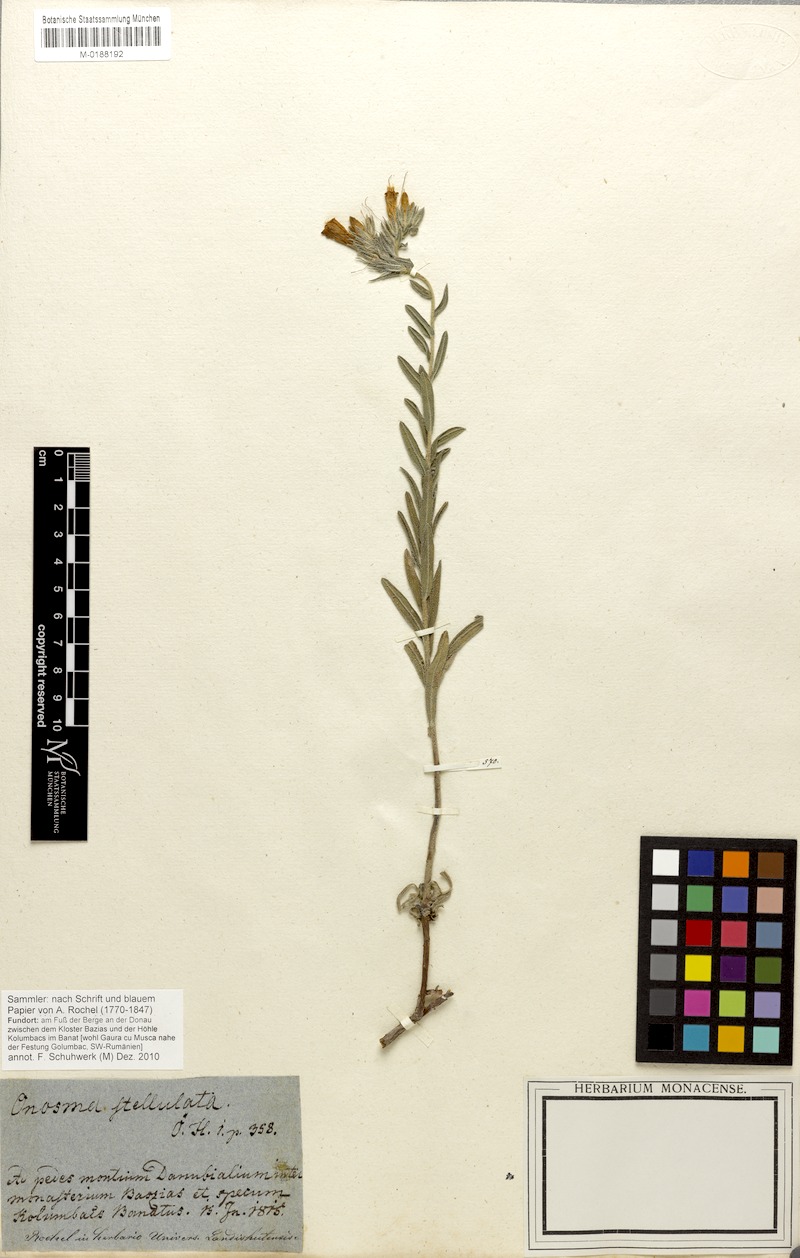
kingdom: Plantae
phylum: Tracheophyta
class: Magnoliopsida
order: Boraginales
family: Boraginaceae
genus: Onosma
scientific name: Onosma stellulata
